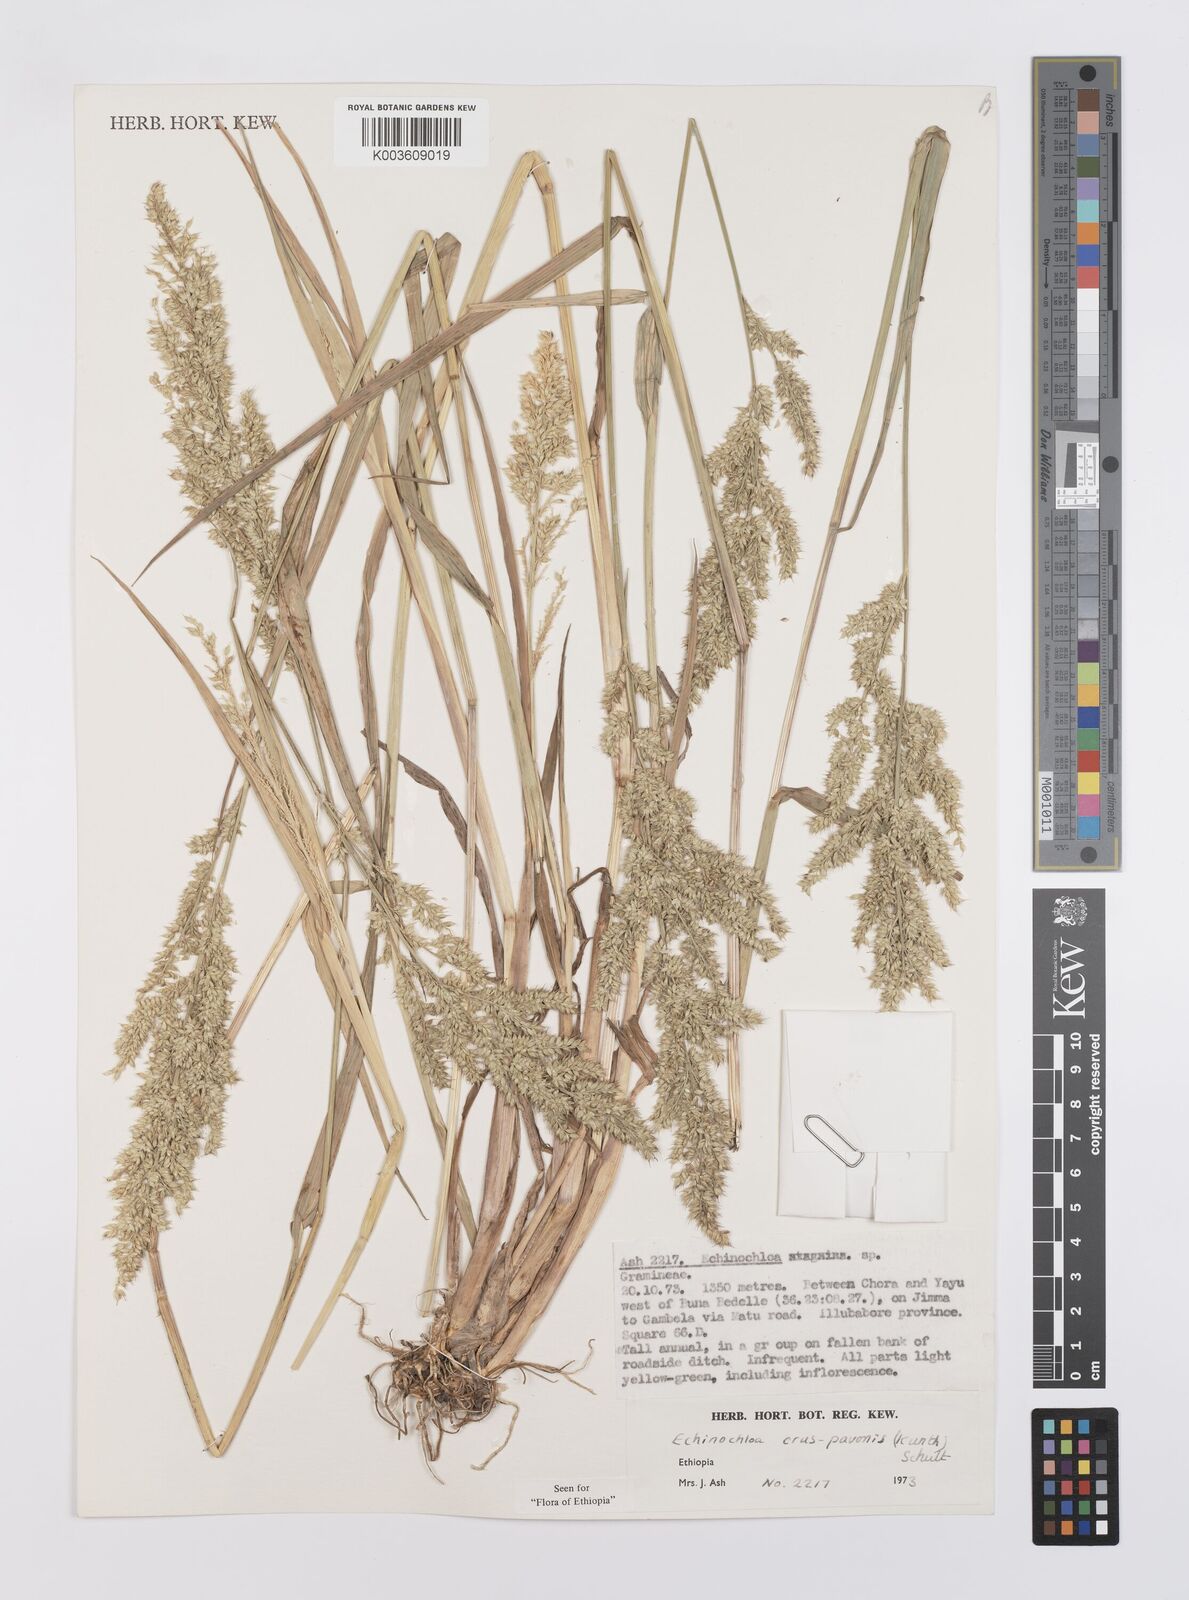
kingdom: Plantae
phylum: Tracheophyta
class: Liliopsida
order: Poales
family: Poaceae
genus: Echinochloa
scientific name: Echinochloa crus-pavonis
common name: Gulf cockspur grass
